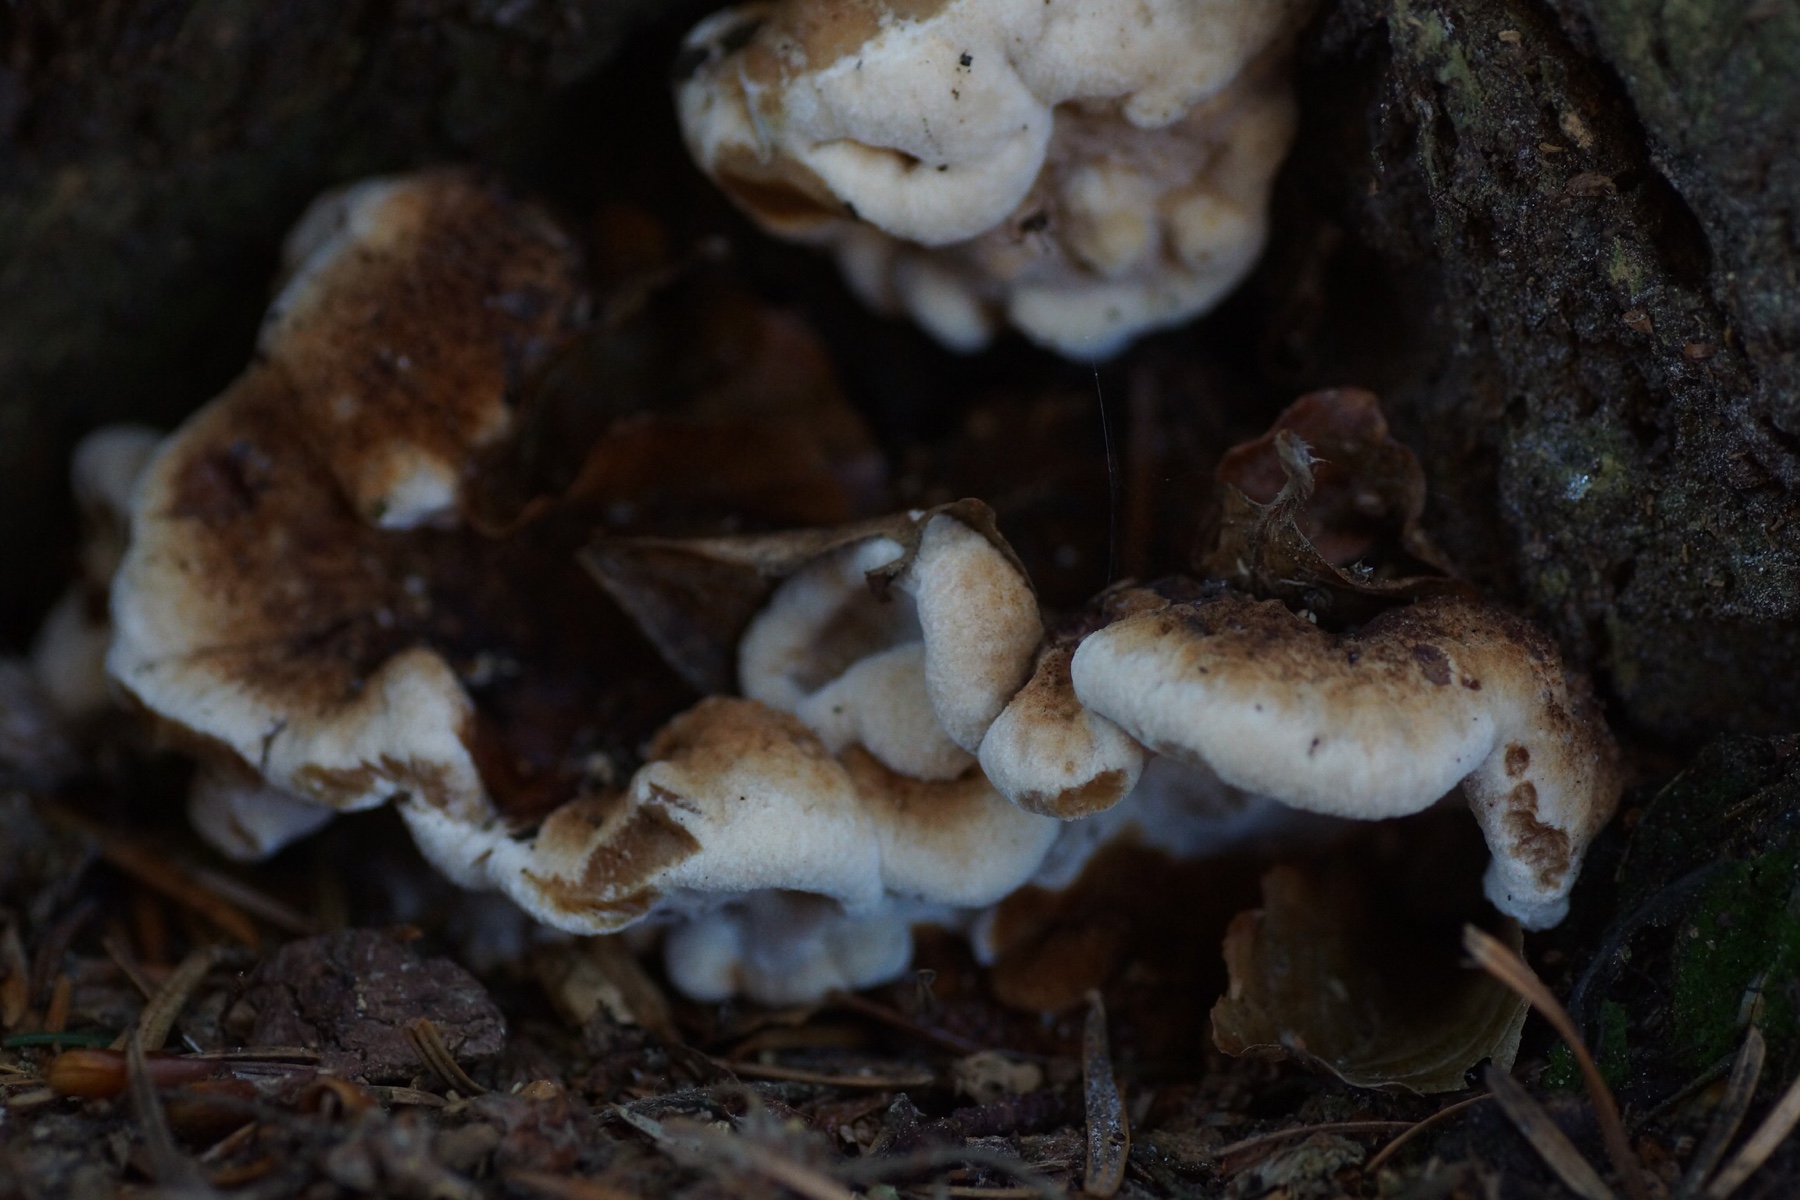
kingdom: Fungi
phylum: Basidiomycota
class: Agaricomycetes
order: Polyporales
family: Ischnodermataceae
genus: Ischnoderma
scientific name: Ischnoderma benzoinum
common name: gran-tjæreporesvamp
